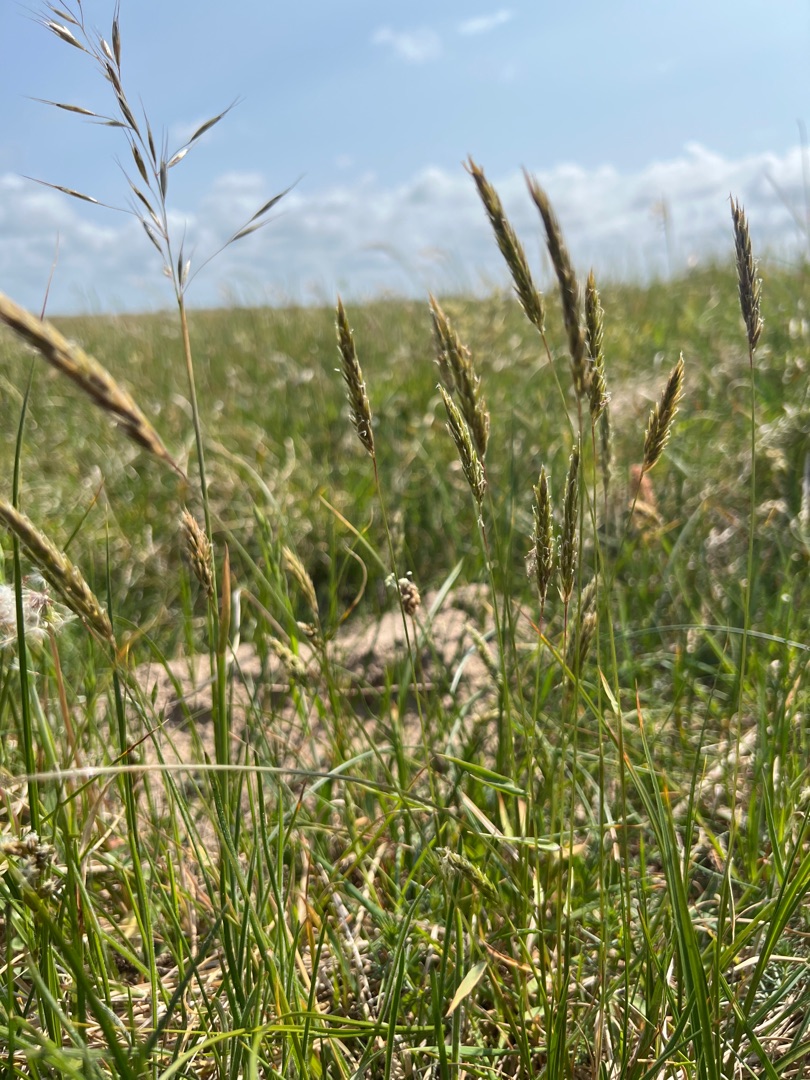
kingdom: Plantae
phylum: Tracheophyta
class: Liliopsida
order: Poales
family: Poaceae
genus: Anthoxanthum
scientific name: Anthoxanthum odoratum
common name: Vellugtende gulaks
